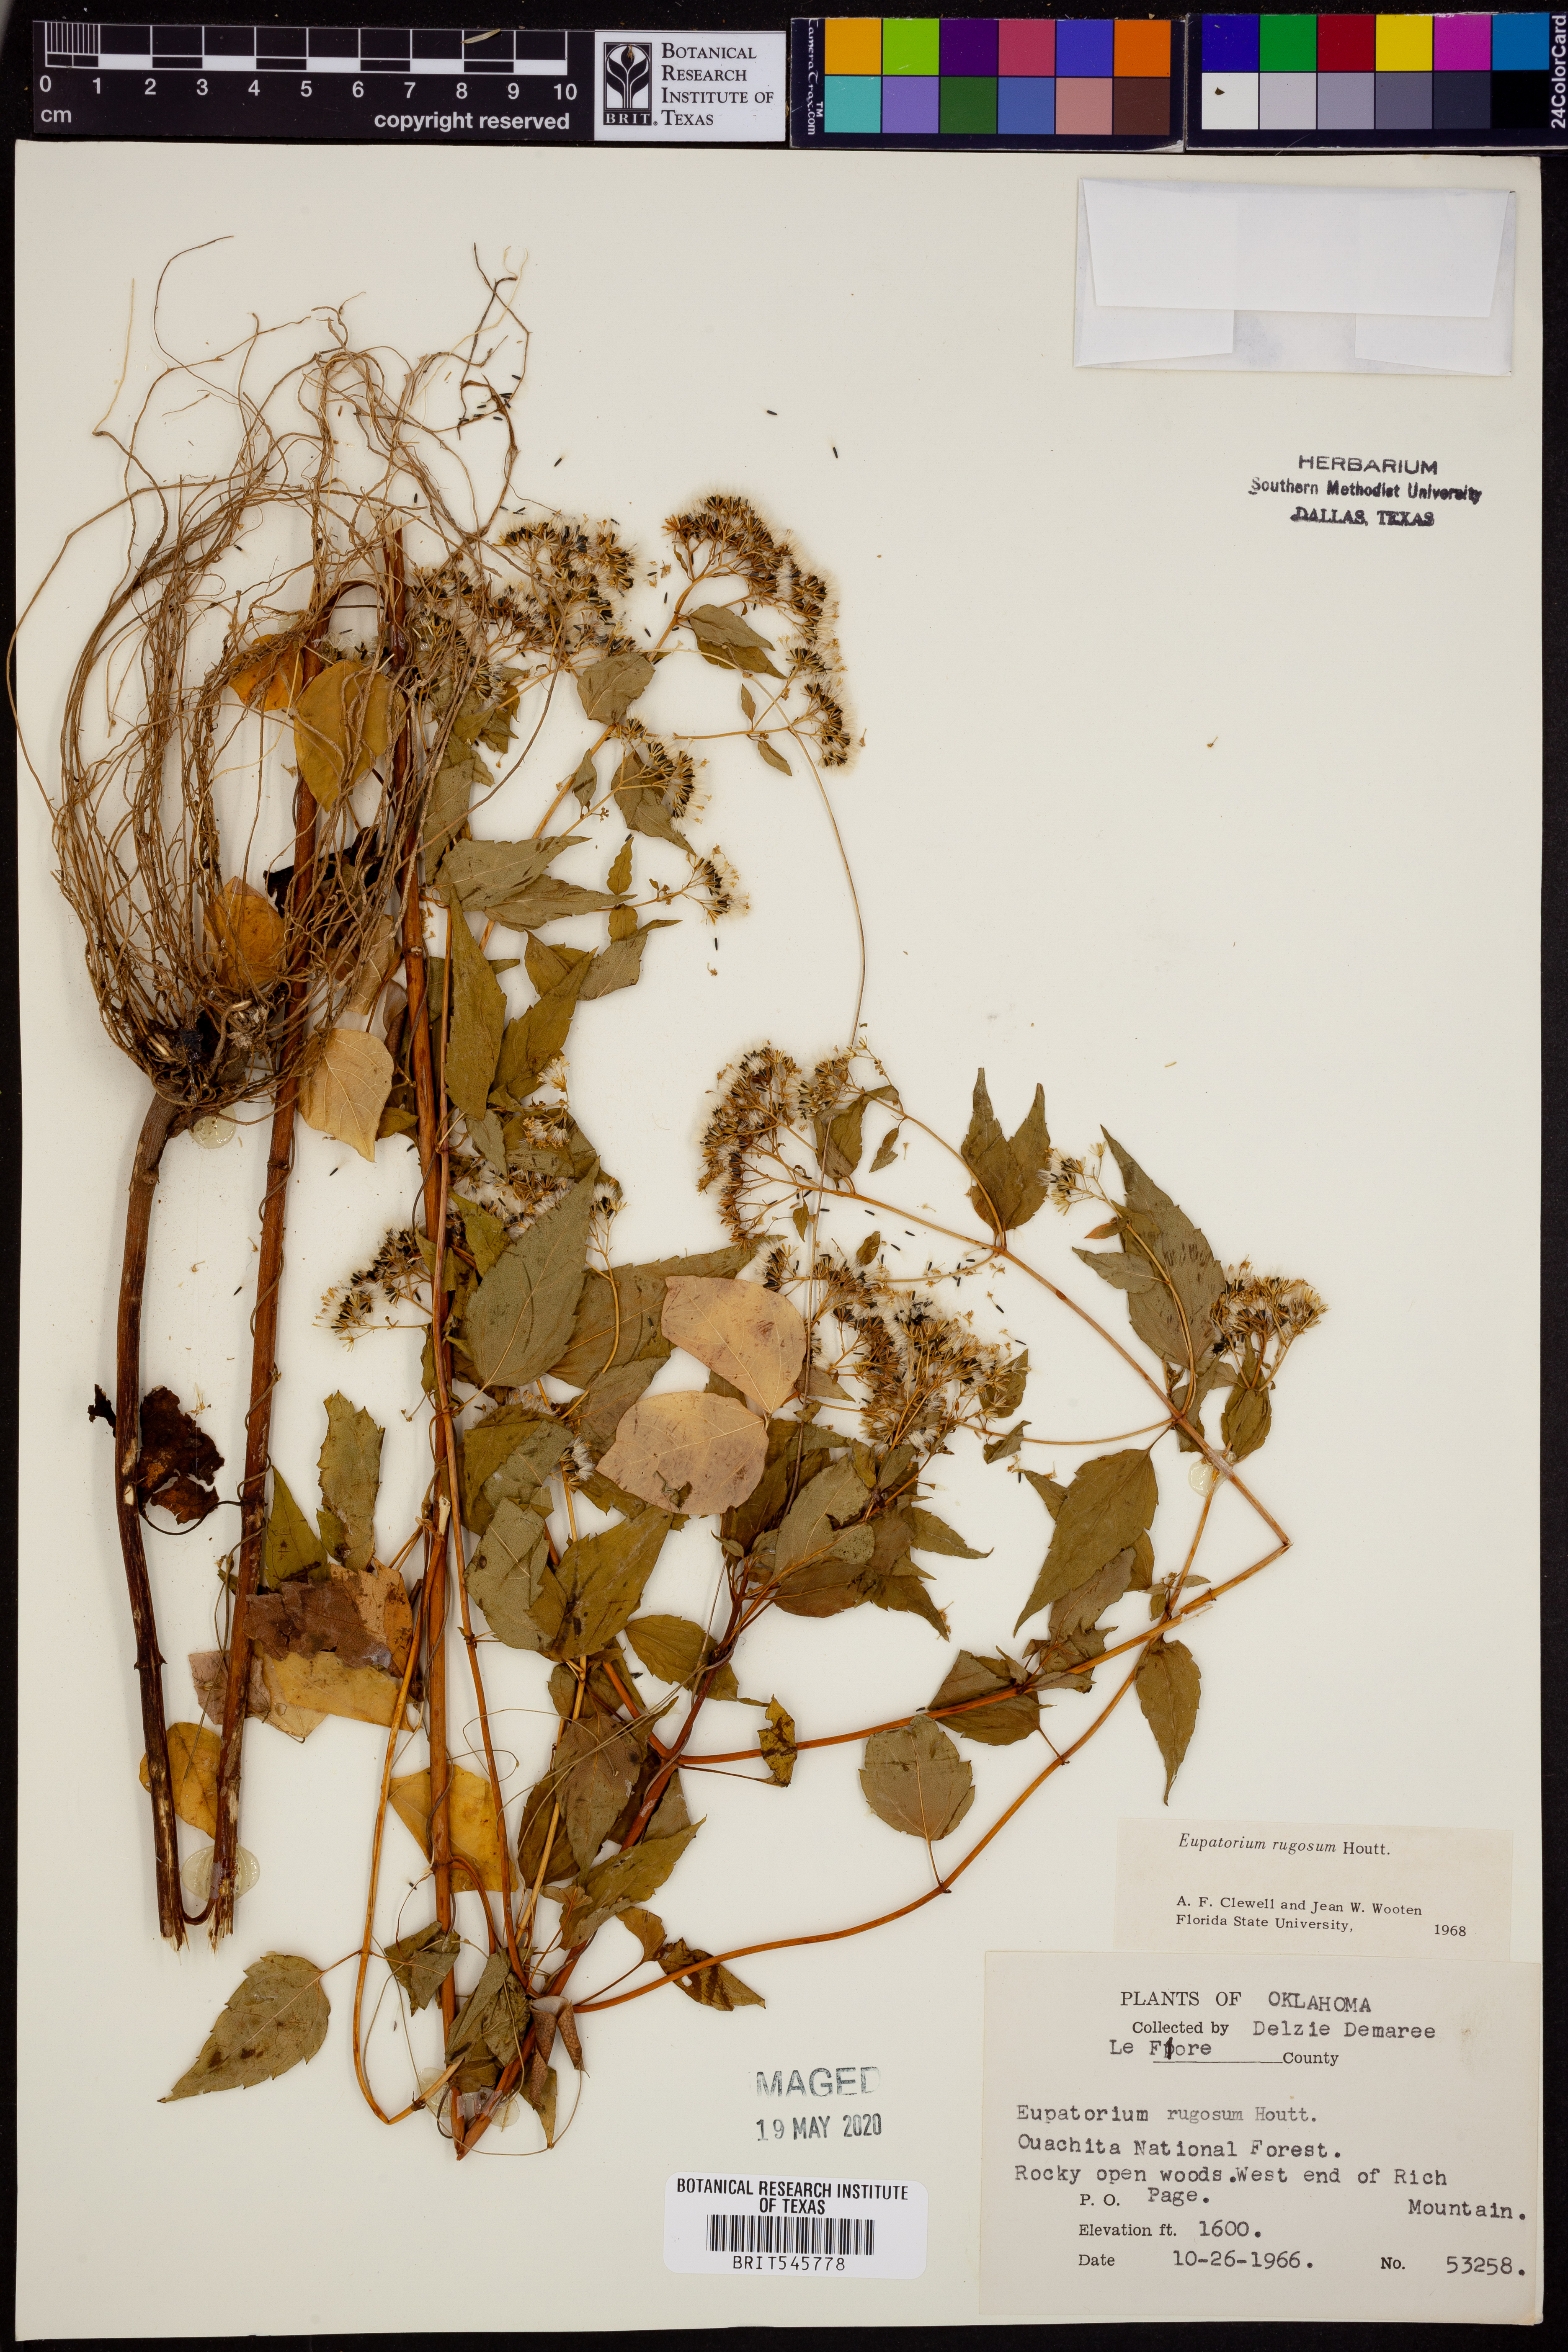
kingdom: Plantae
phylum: Tracheophyta
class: Magnoliopsida
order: Asterales
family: Asteraceae
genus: Cronquistianthus
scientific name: Cronquistianthus bulliferus
